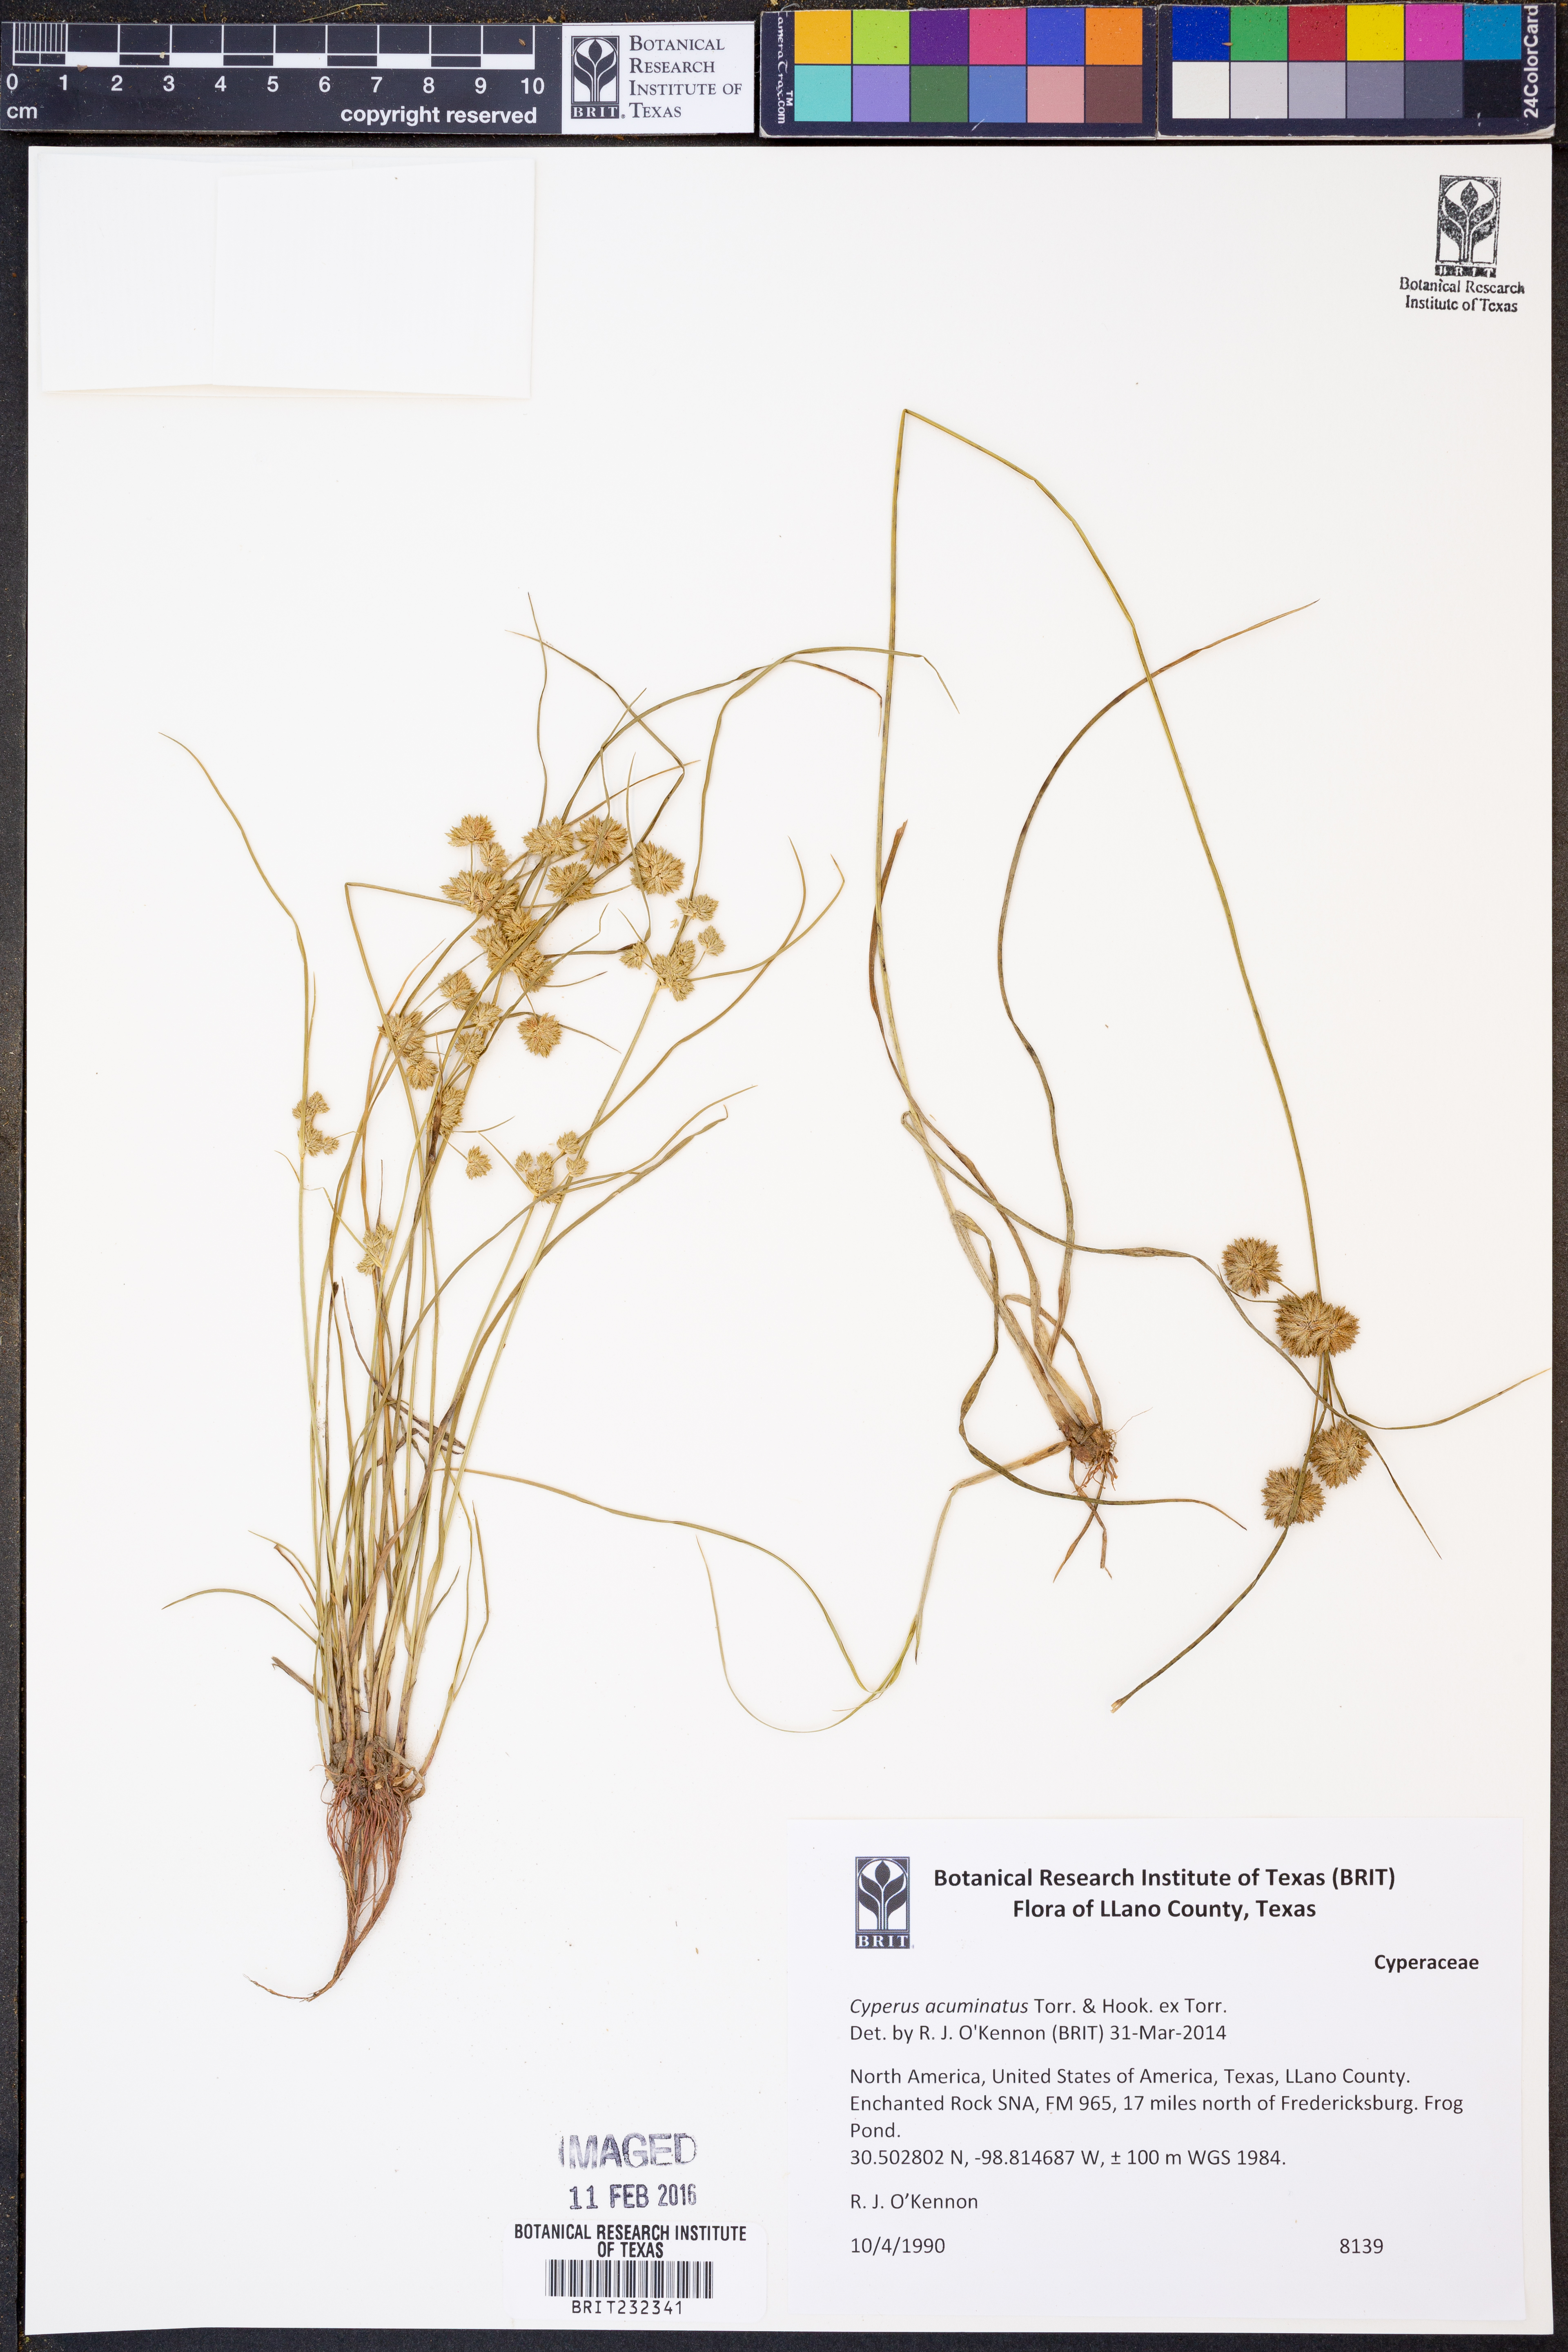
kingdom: Plantae
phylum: Tracheophyta
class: Liliopsida
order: Poales
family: Cyperaceae
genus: Cyperus
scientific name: Cyperus acuminatus
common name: Short-pointed cyperus
